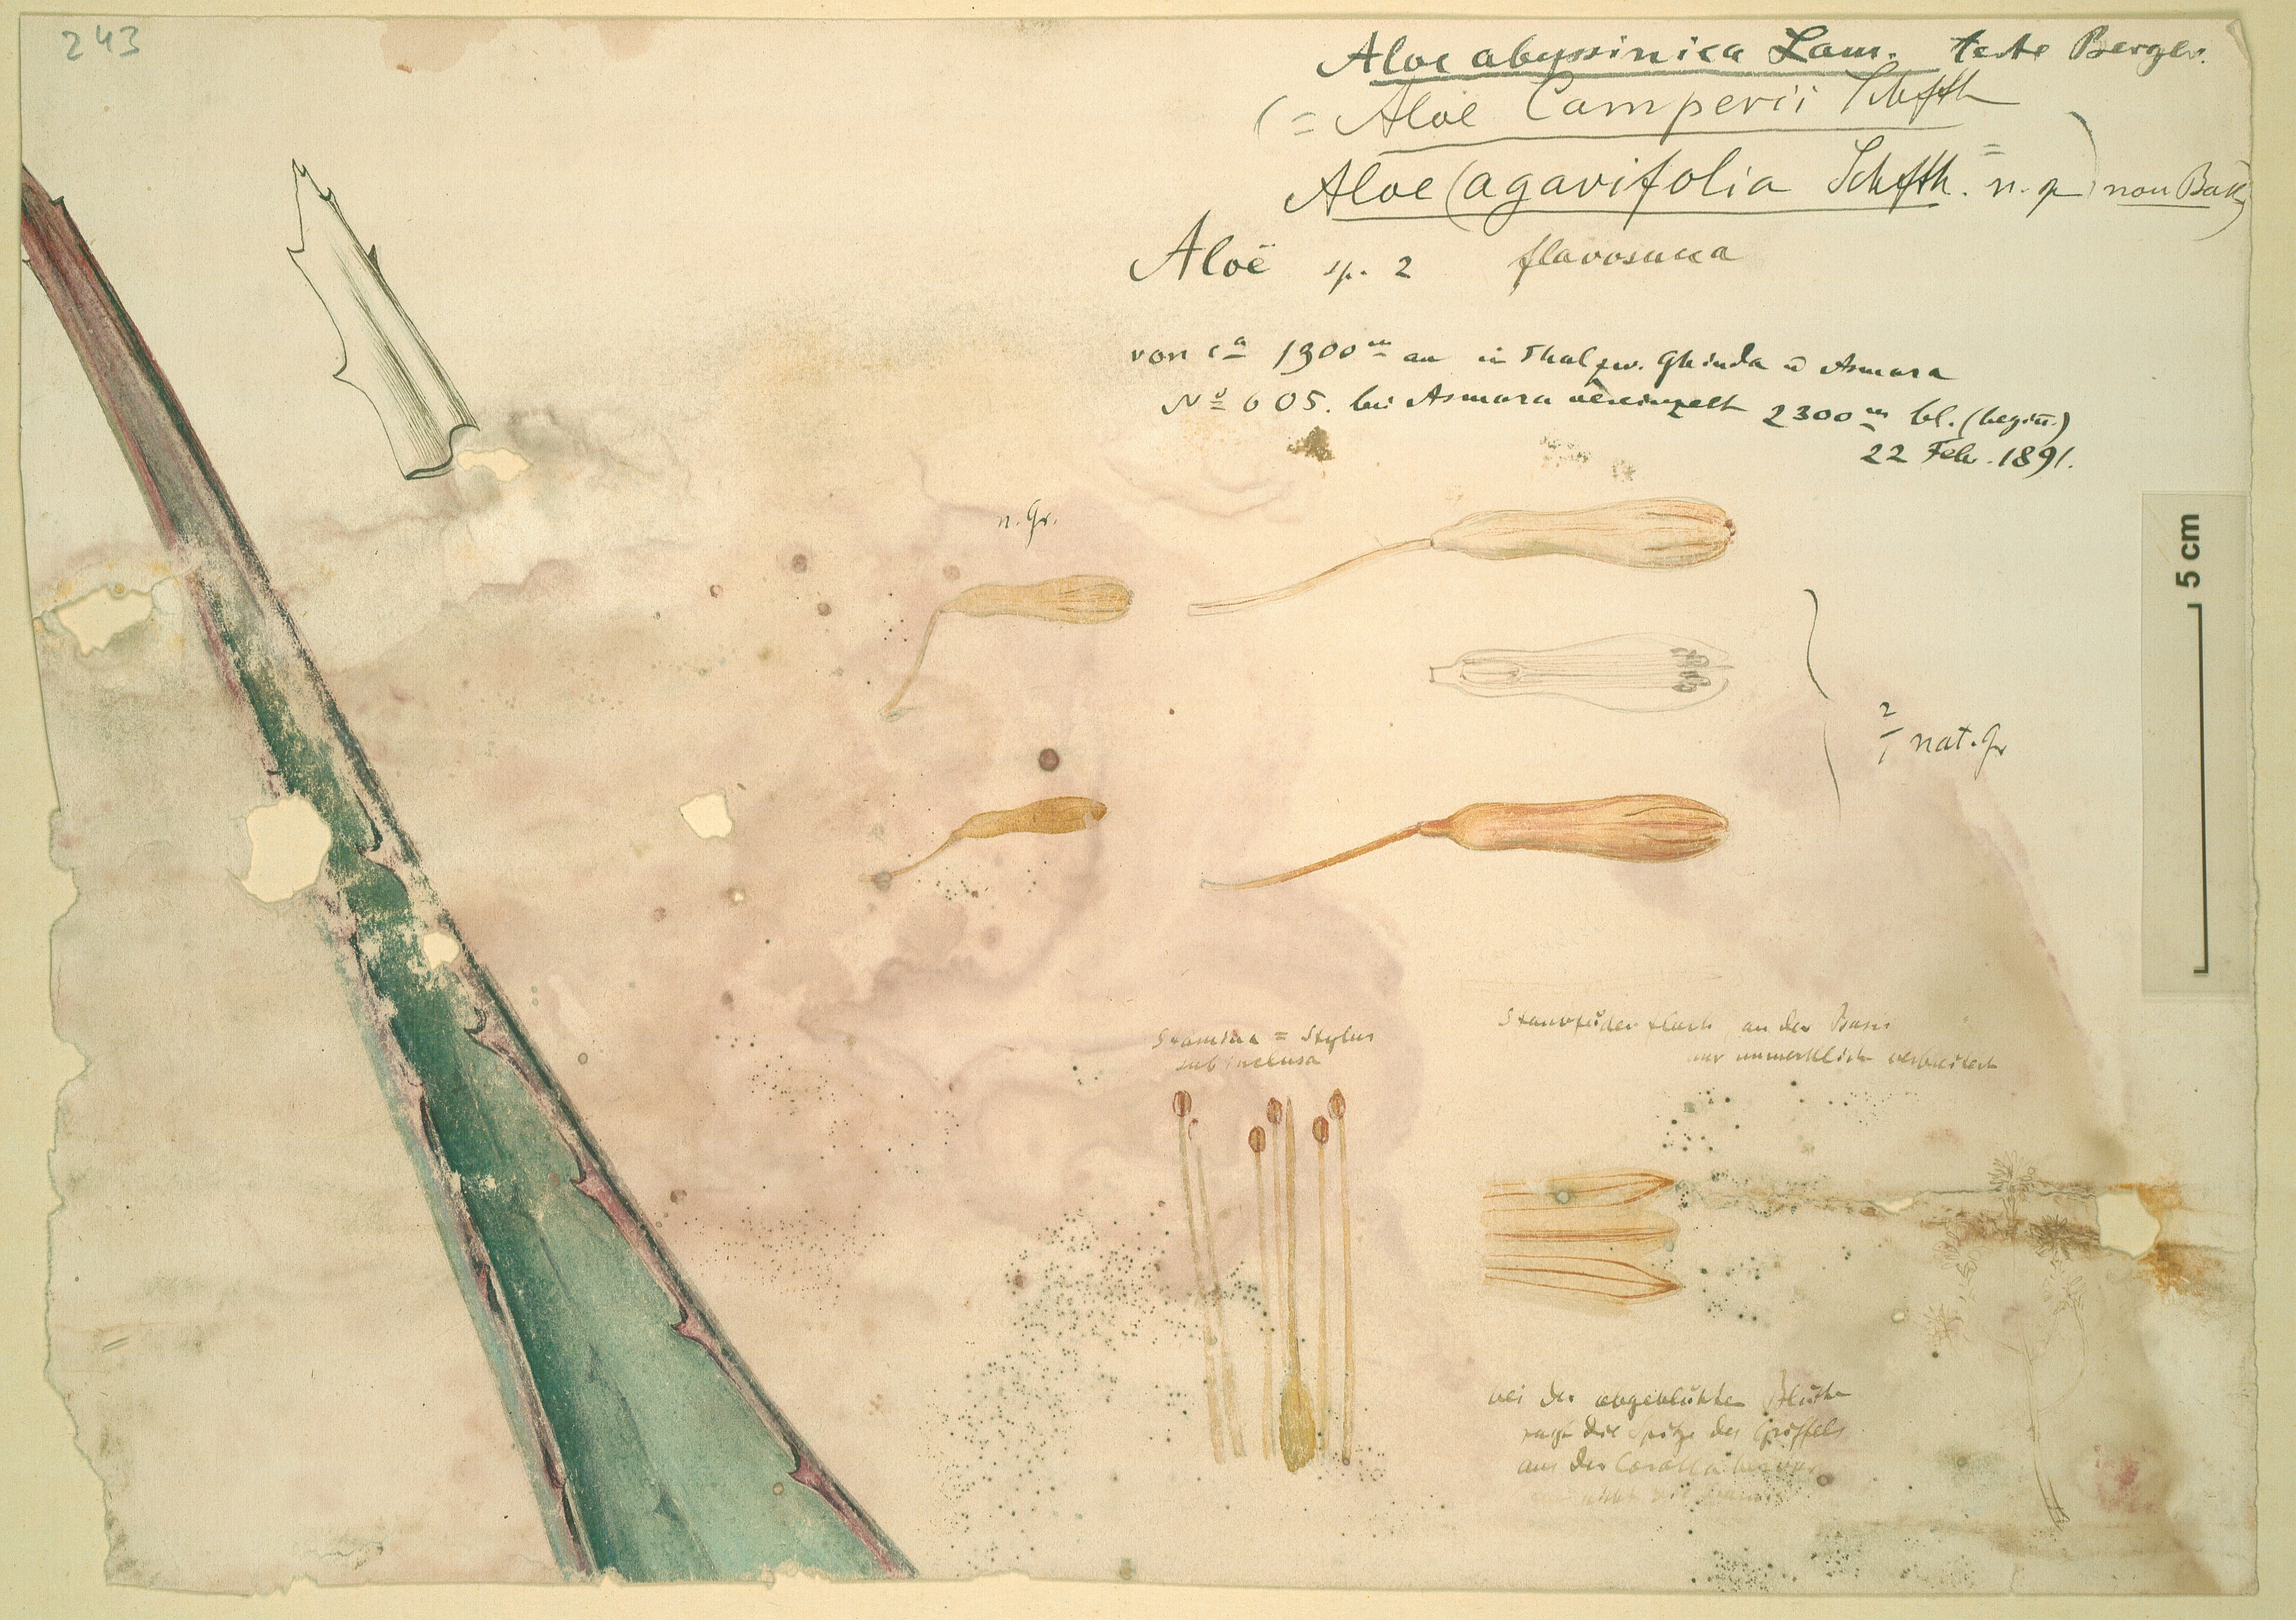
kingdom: Plantae
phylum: Tracheophyta
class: Liliopsida
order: Asparagales
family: Asphodelaceae
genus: Aloe
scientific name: Aloe camperi
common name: Camper's aloe
